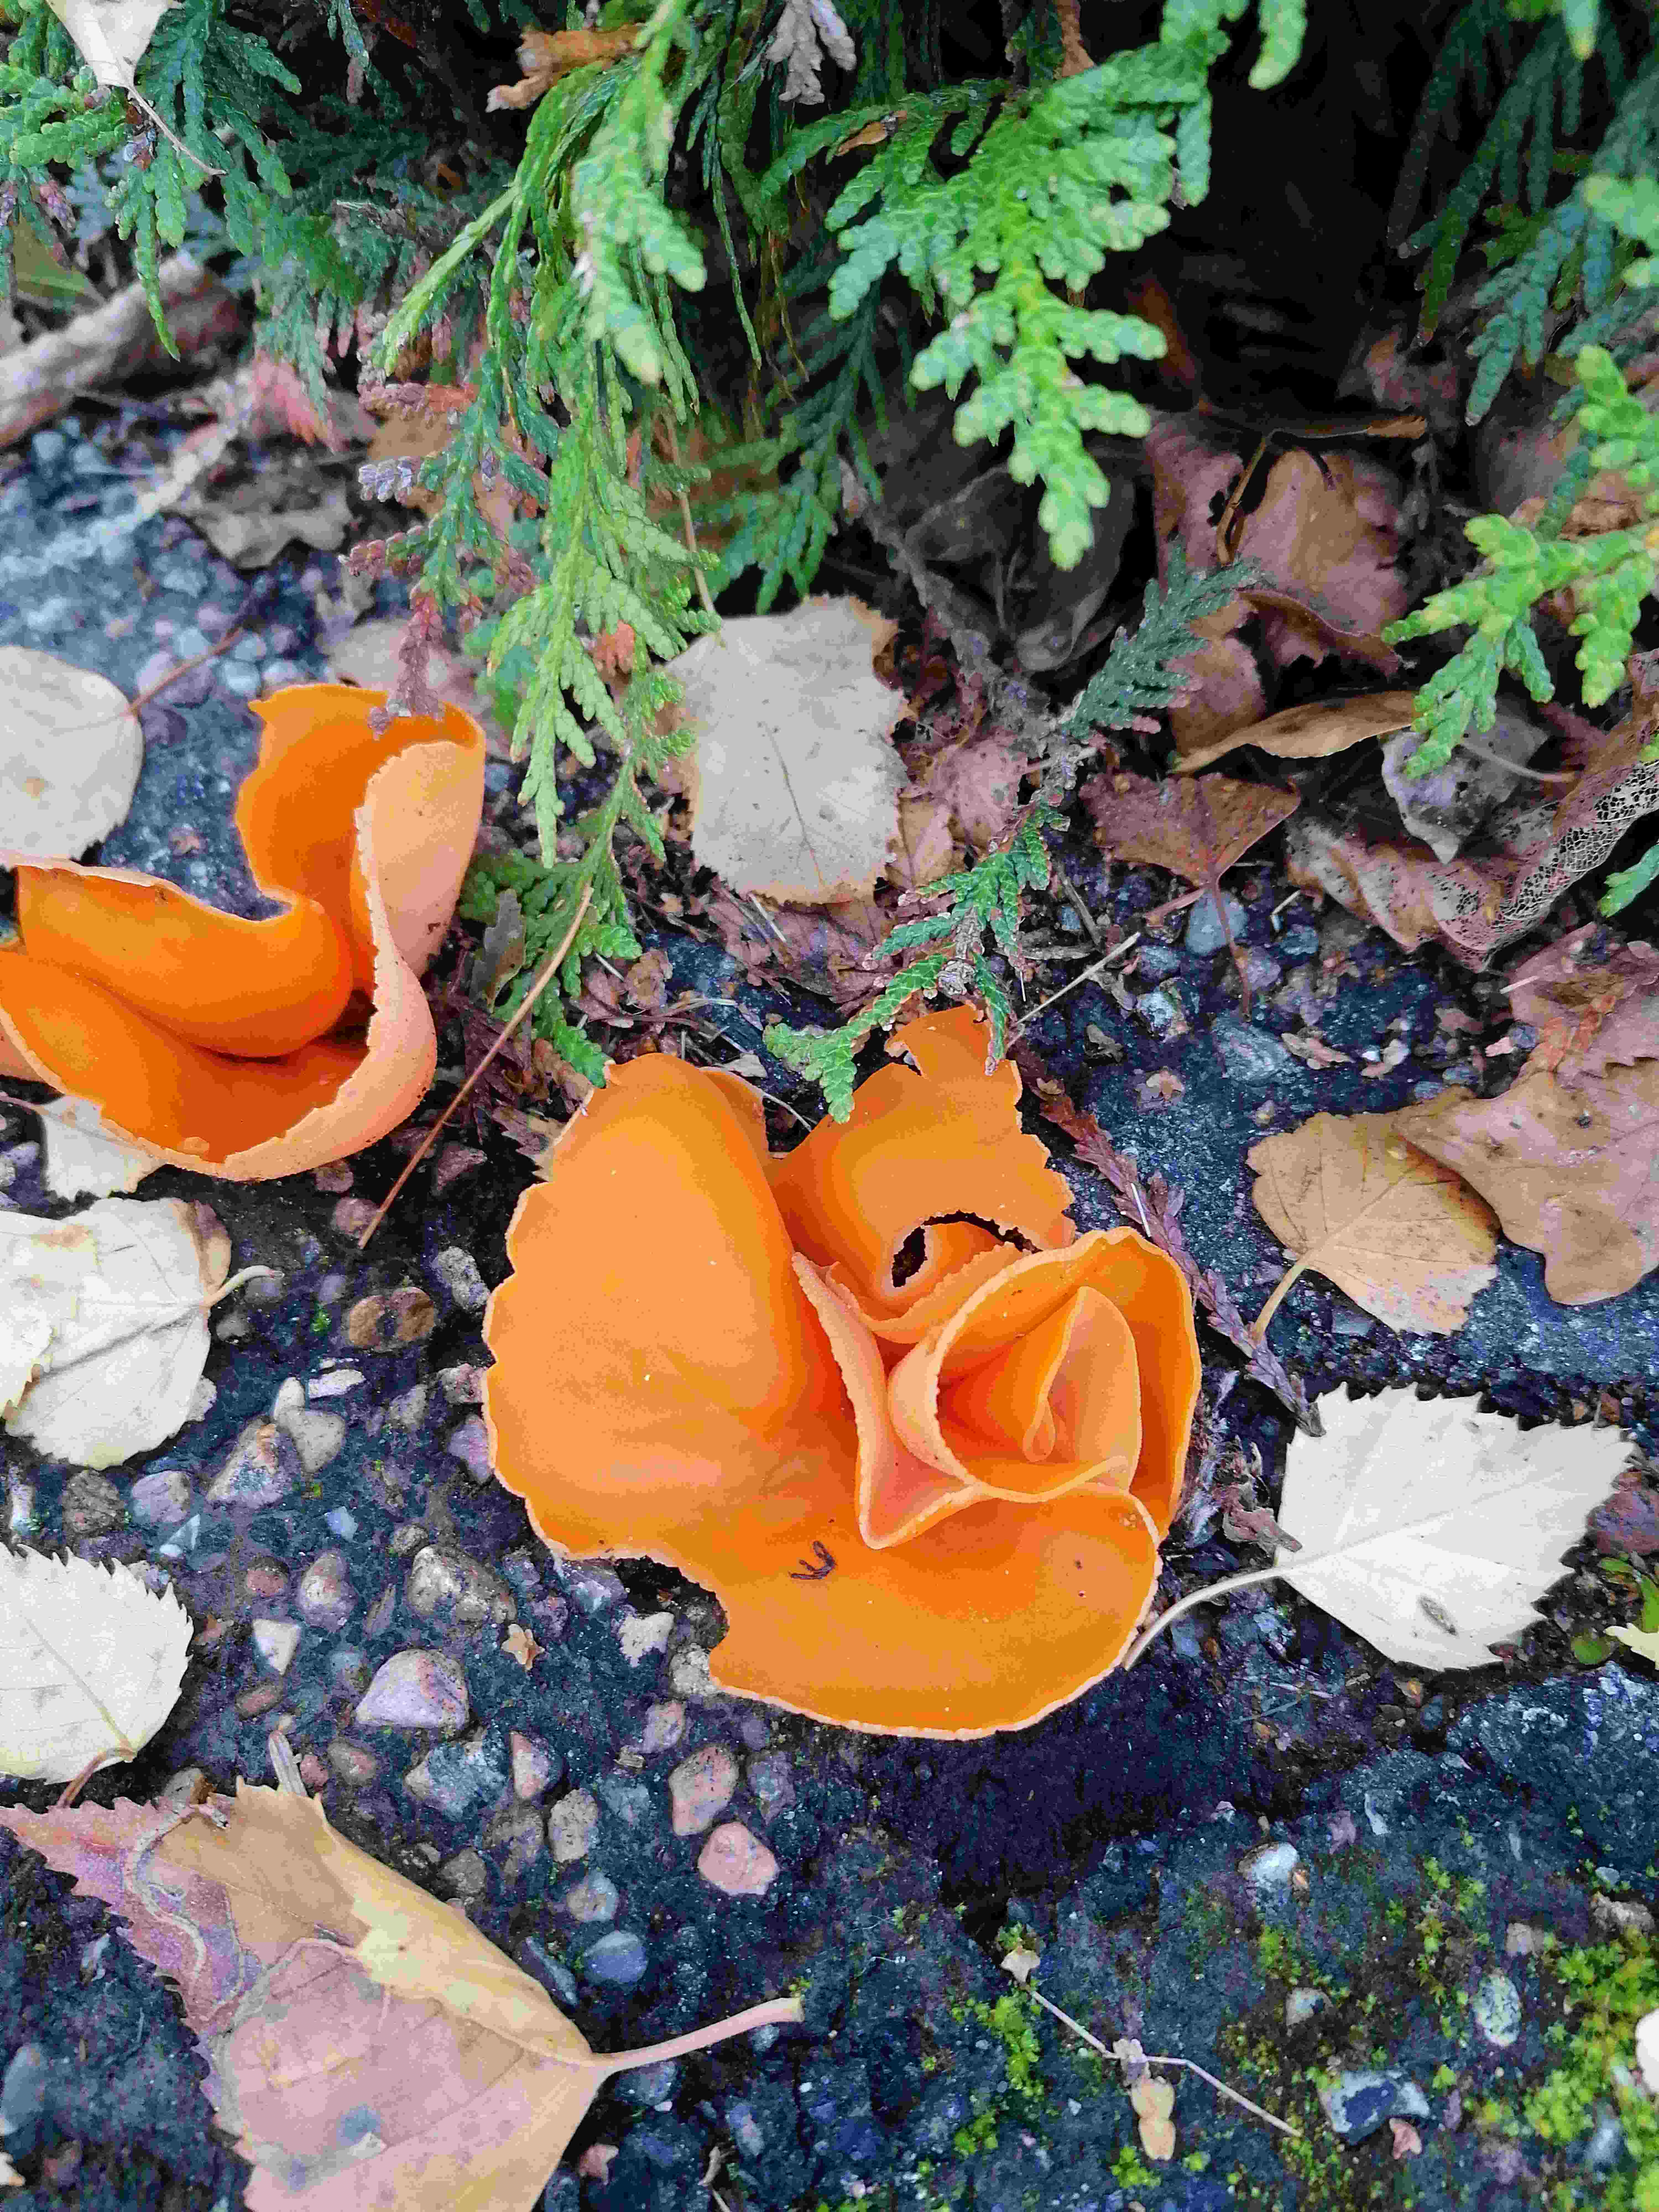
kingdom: Fungi
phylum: Ascomycota
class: Pezizomycetes
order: Pezizales
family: Pyronemataceae
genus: Aleuria
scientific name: Aleuria aurantia
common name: almindelig orangebæger
